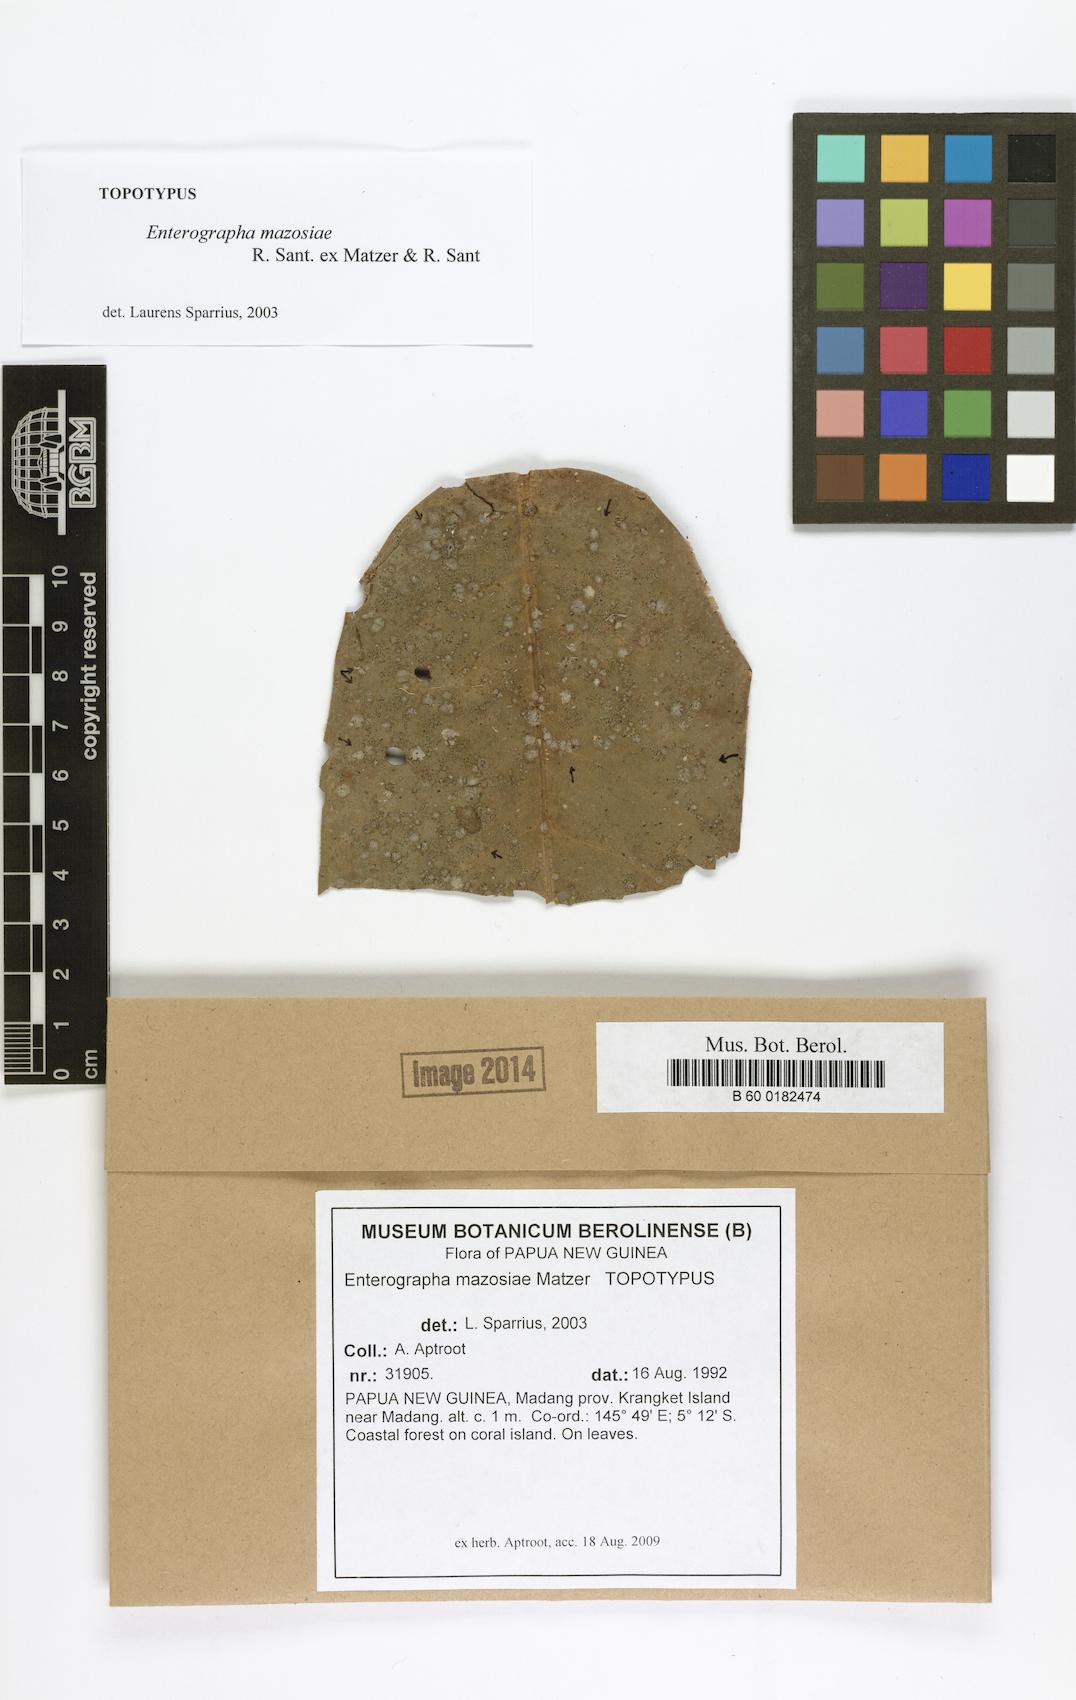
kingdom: Fungi
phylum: Ascomycota
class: Arthoniomycetes
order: Arthoniales
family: Roccellaceae
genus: Enterographa
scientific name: Enterographa mazosiae
